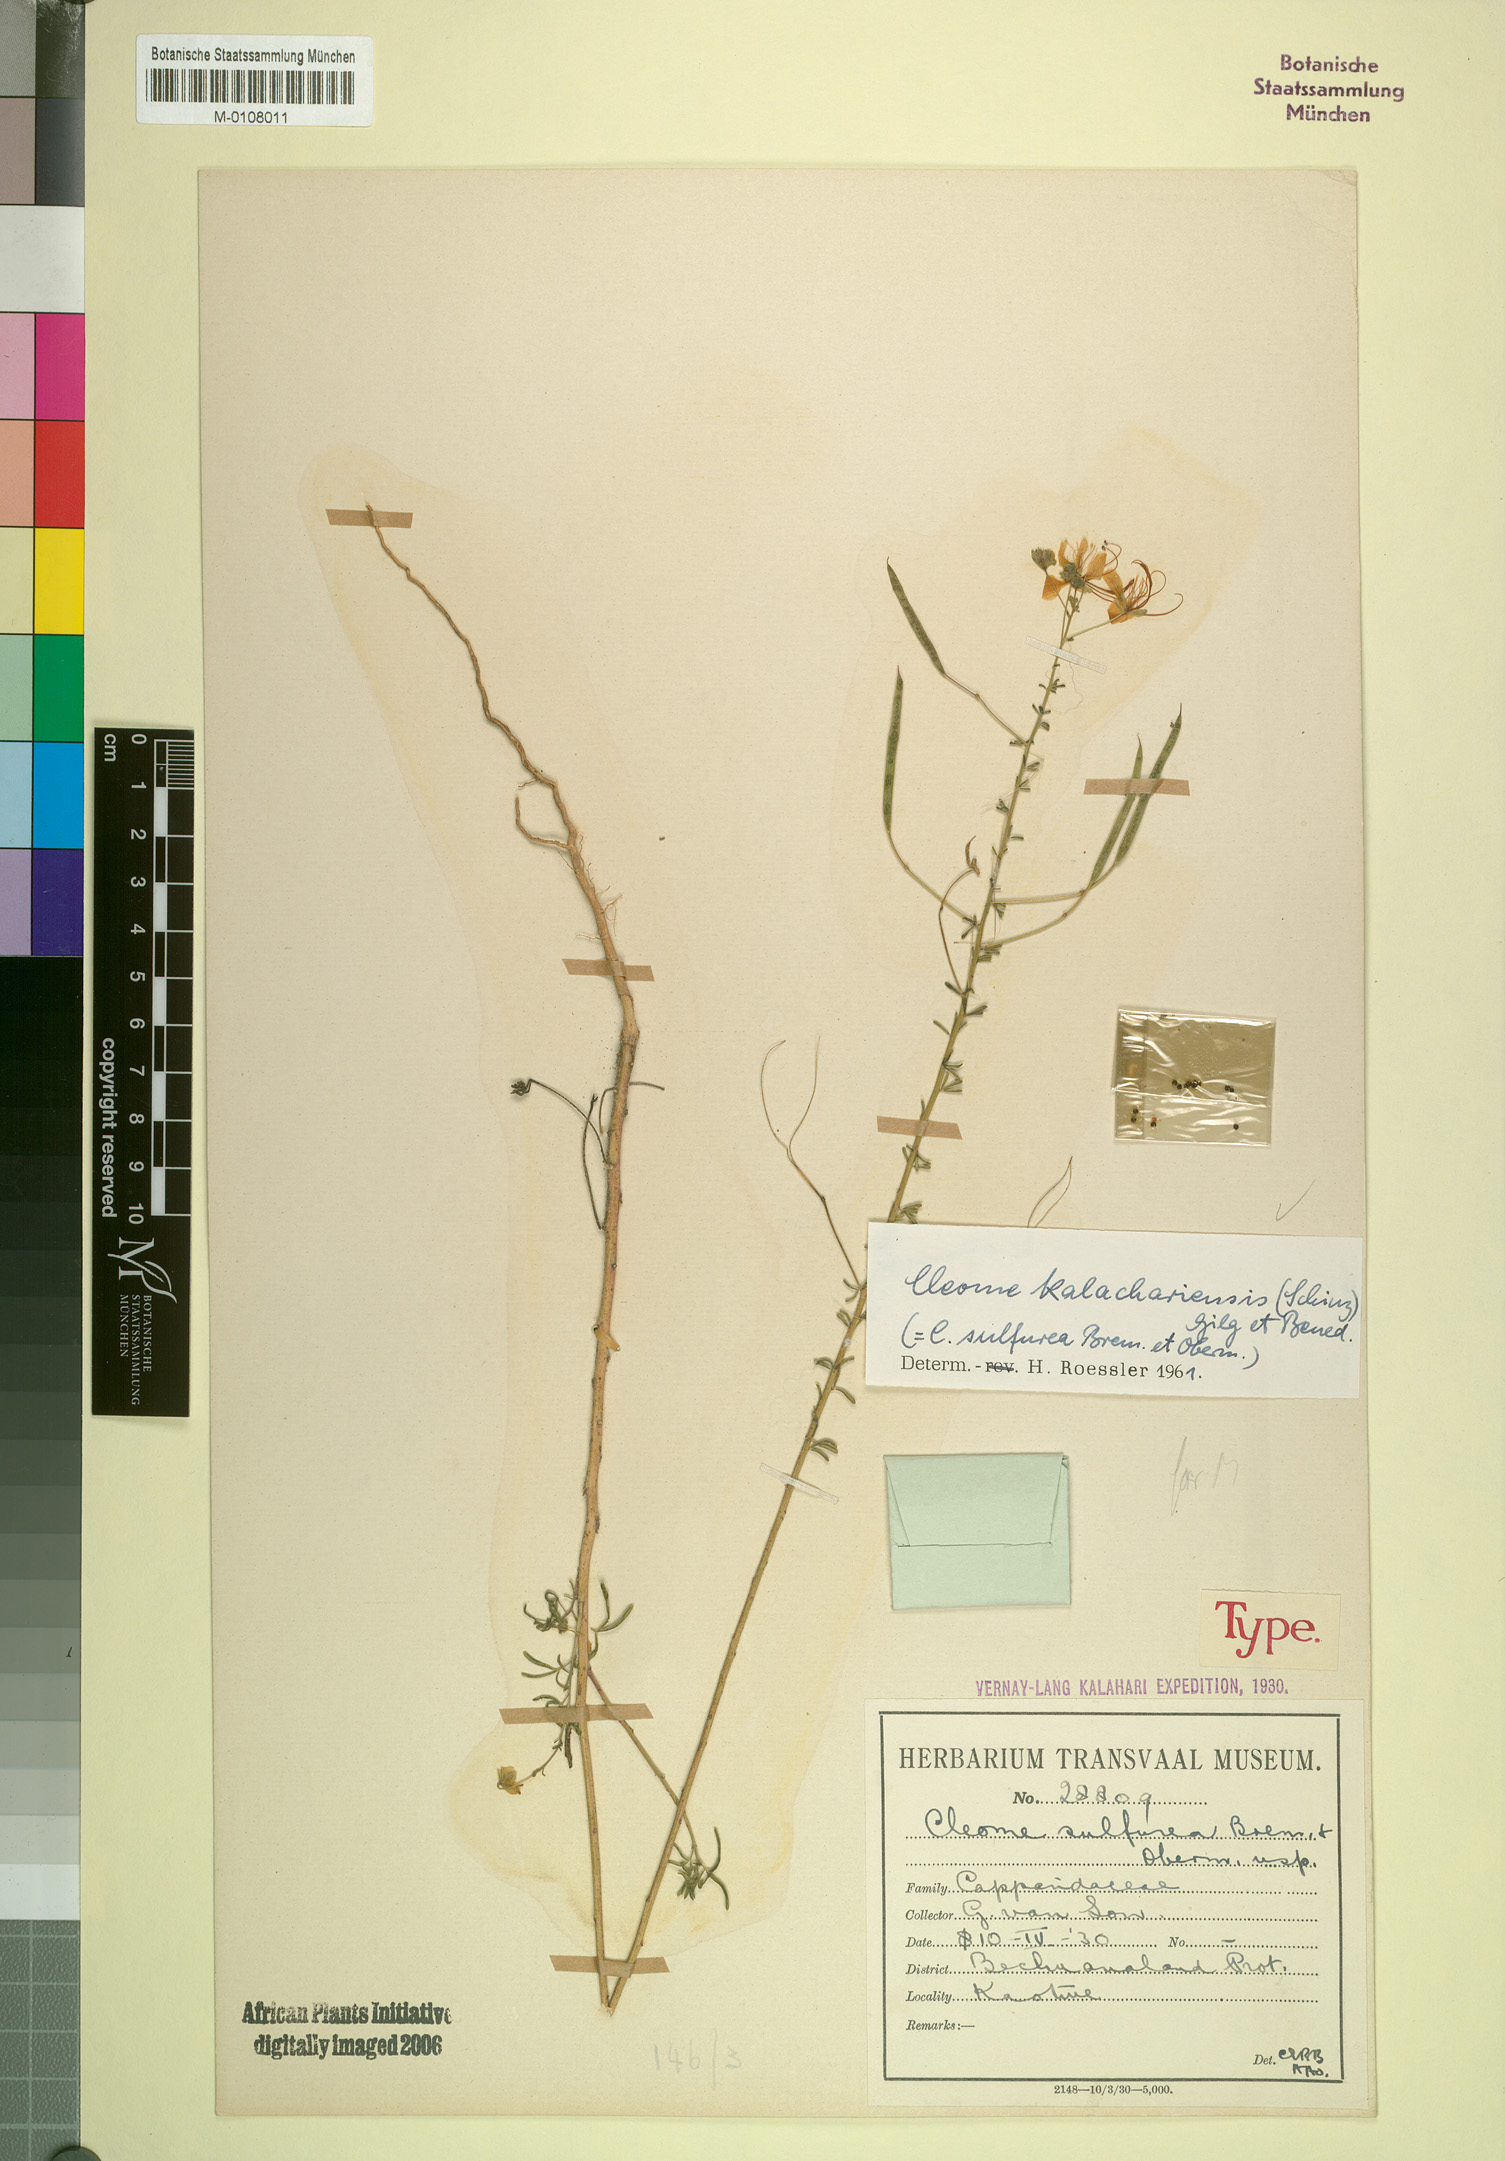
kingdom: Plantae
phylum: Tracheophyta
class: Magnoliopsida
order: Brassicales
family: Cleomaceae
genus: Kersia
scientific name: Kersia kalachariensis
